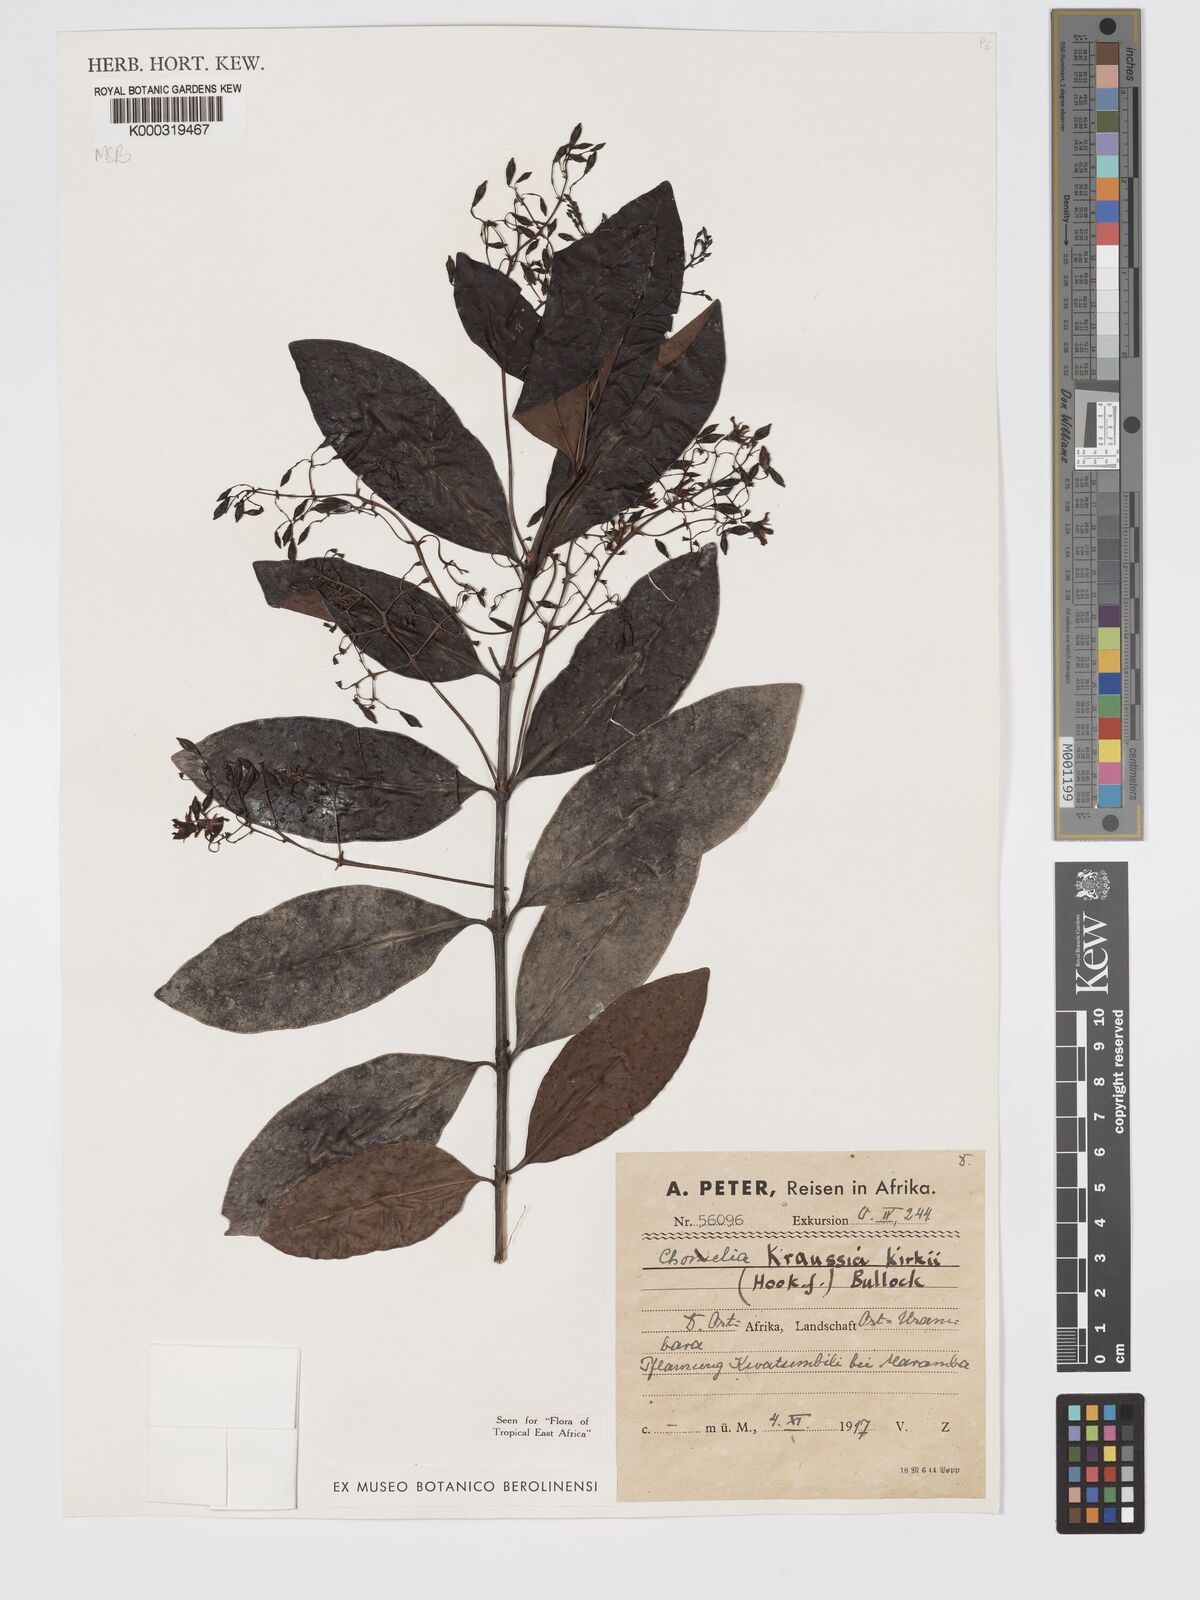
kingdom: Plantae
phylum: Tracheophyta
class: Magnoliopsida
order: Gentianales
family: Rubiaceae
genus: Kraussia
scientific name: Kraussia kirkii
